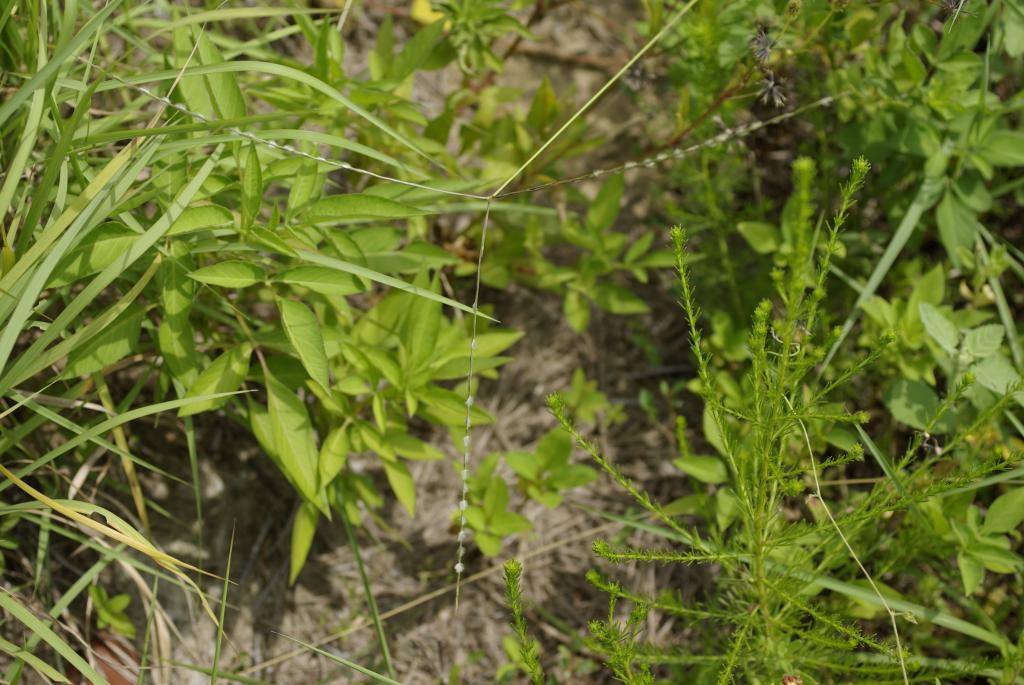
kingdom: Plantae
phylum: Tracheophyta
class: Liliopsida
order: Poales
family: Poaceae
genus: Digitaria
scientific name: Digitaria heterantha
